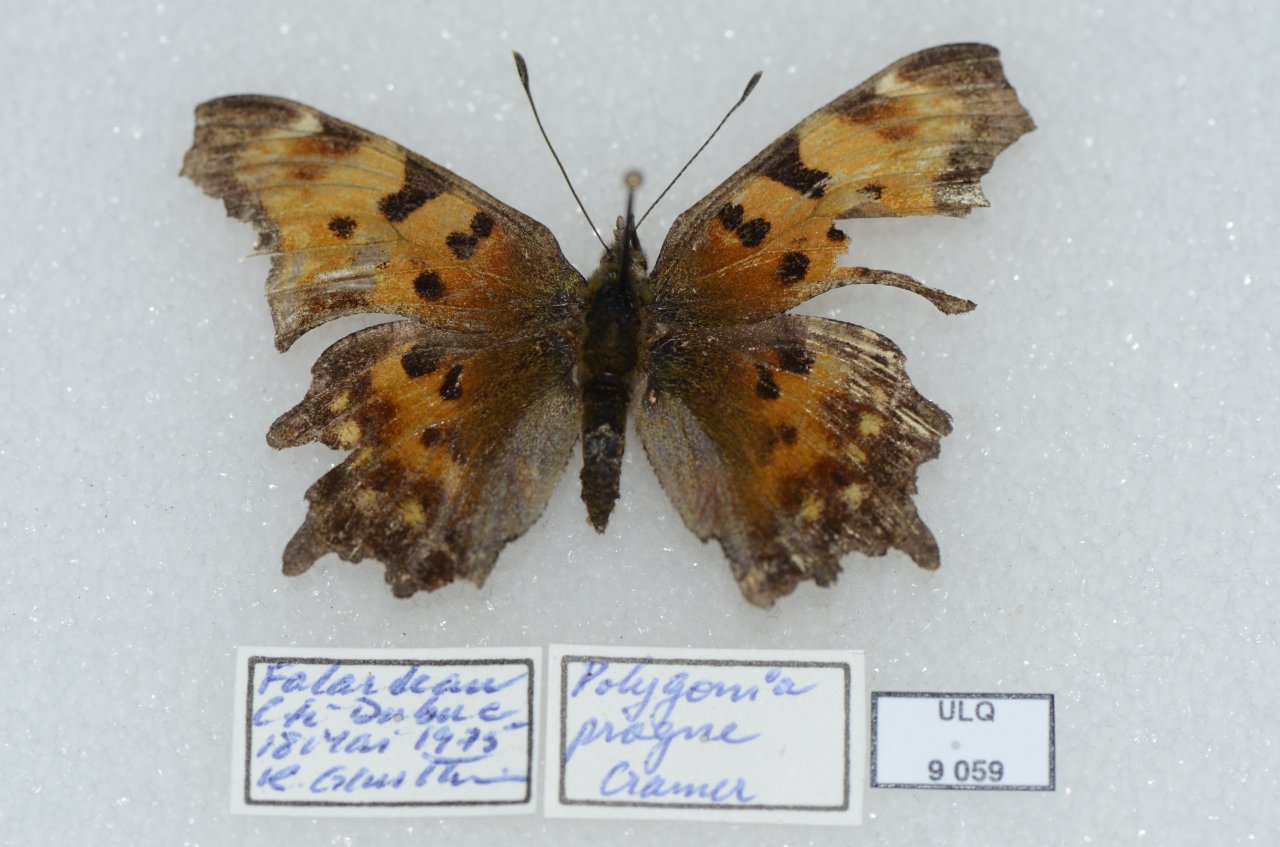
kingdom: Animalia
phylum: Arthropoda
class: Insecta
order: Lepidoptera
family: Nymphalidae
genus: Polygonia
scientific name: Polygonia progne
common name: Gray Comma
